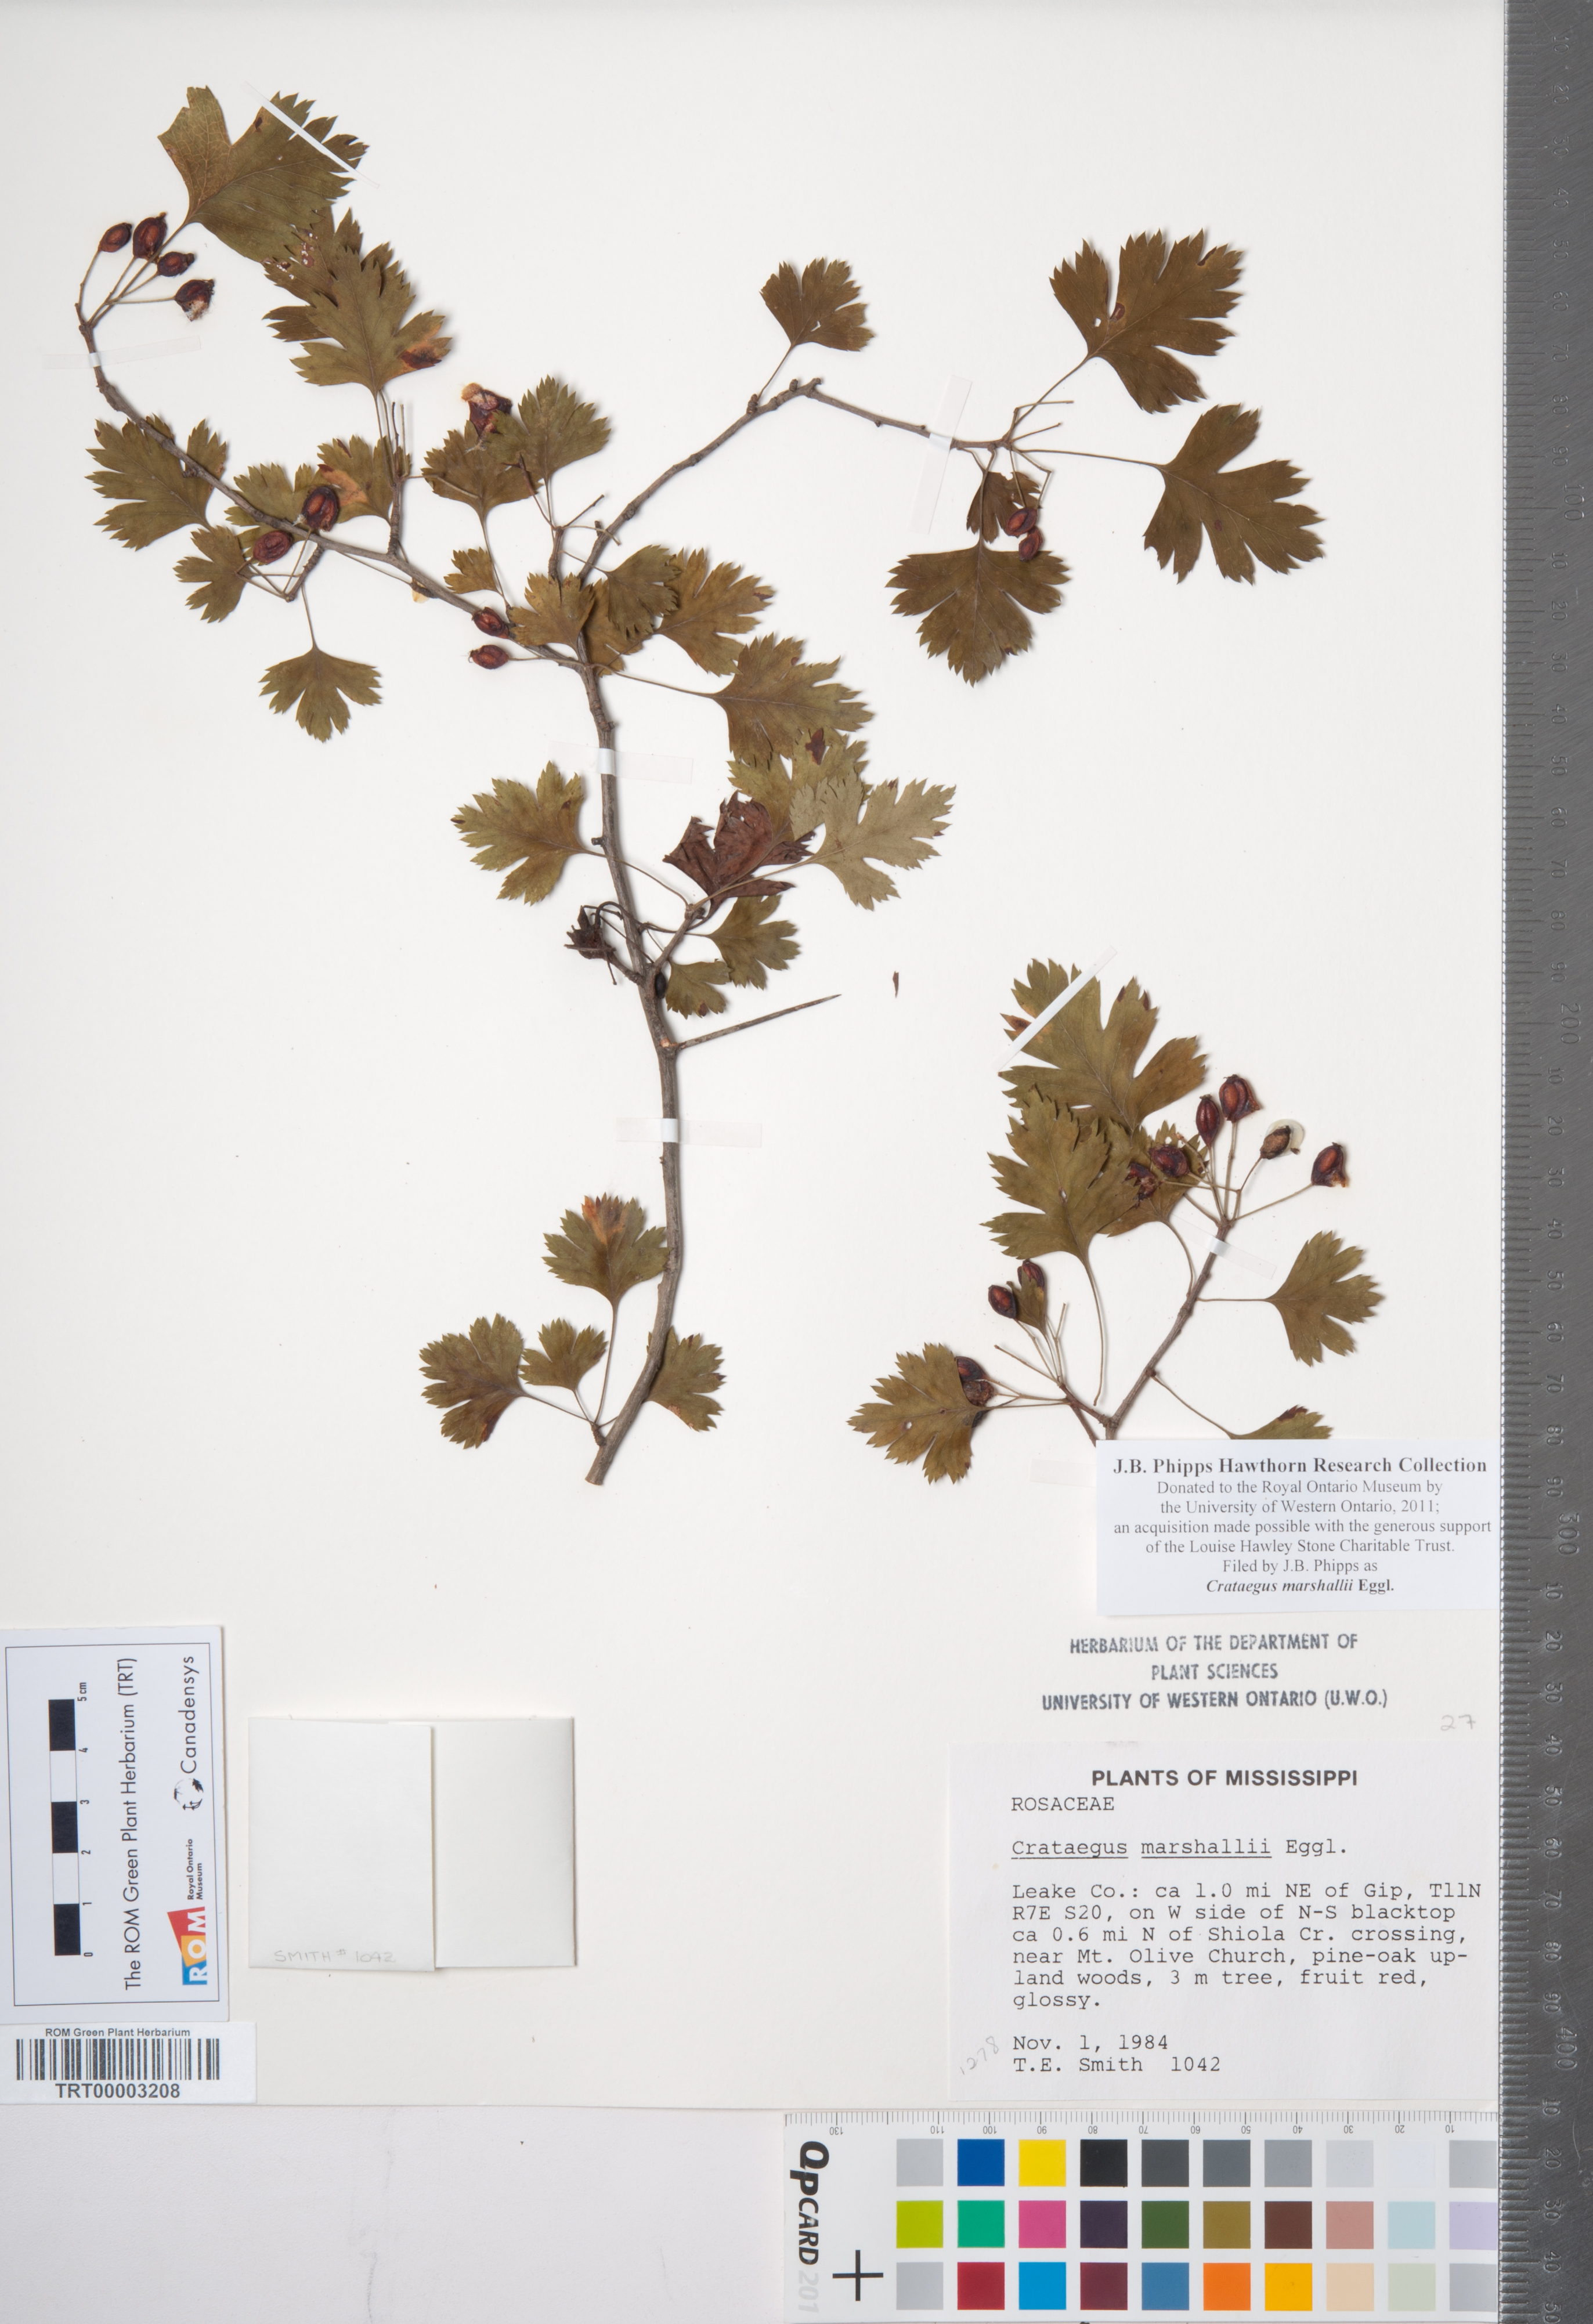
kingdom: Plantae
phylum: Tracheophyta
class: Magnoliopsida
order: Rosales
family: Rosaceae
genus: Crataegus
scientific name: Crataegus marshallii
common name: Parsley-hawthorn
